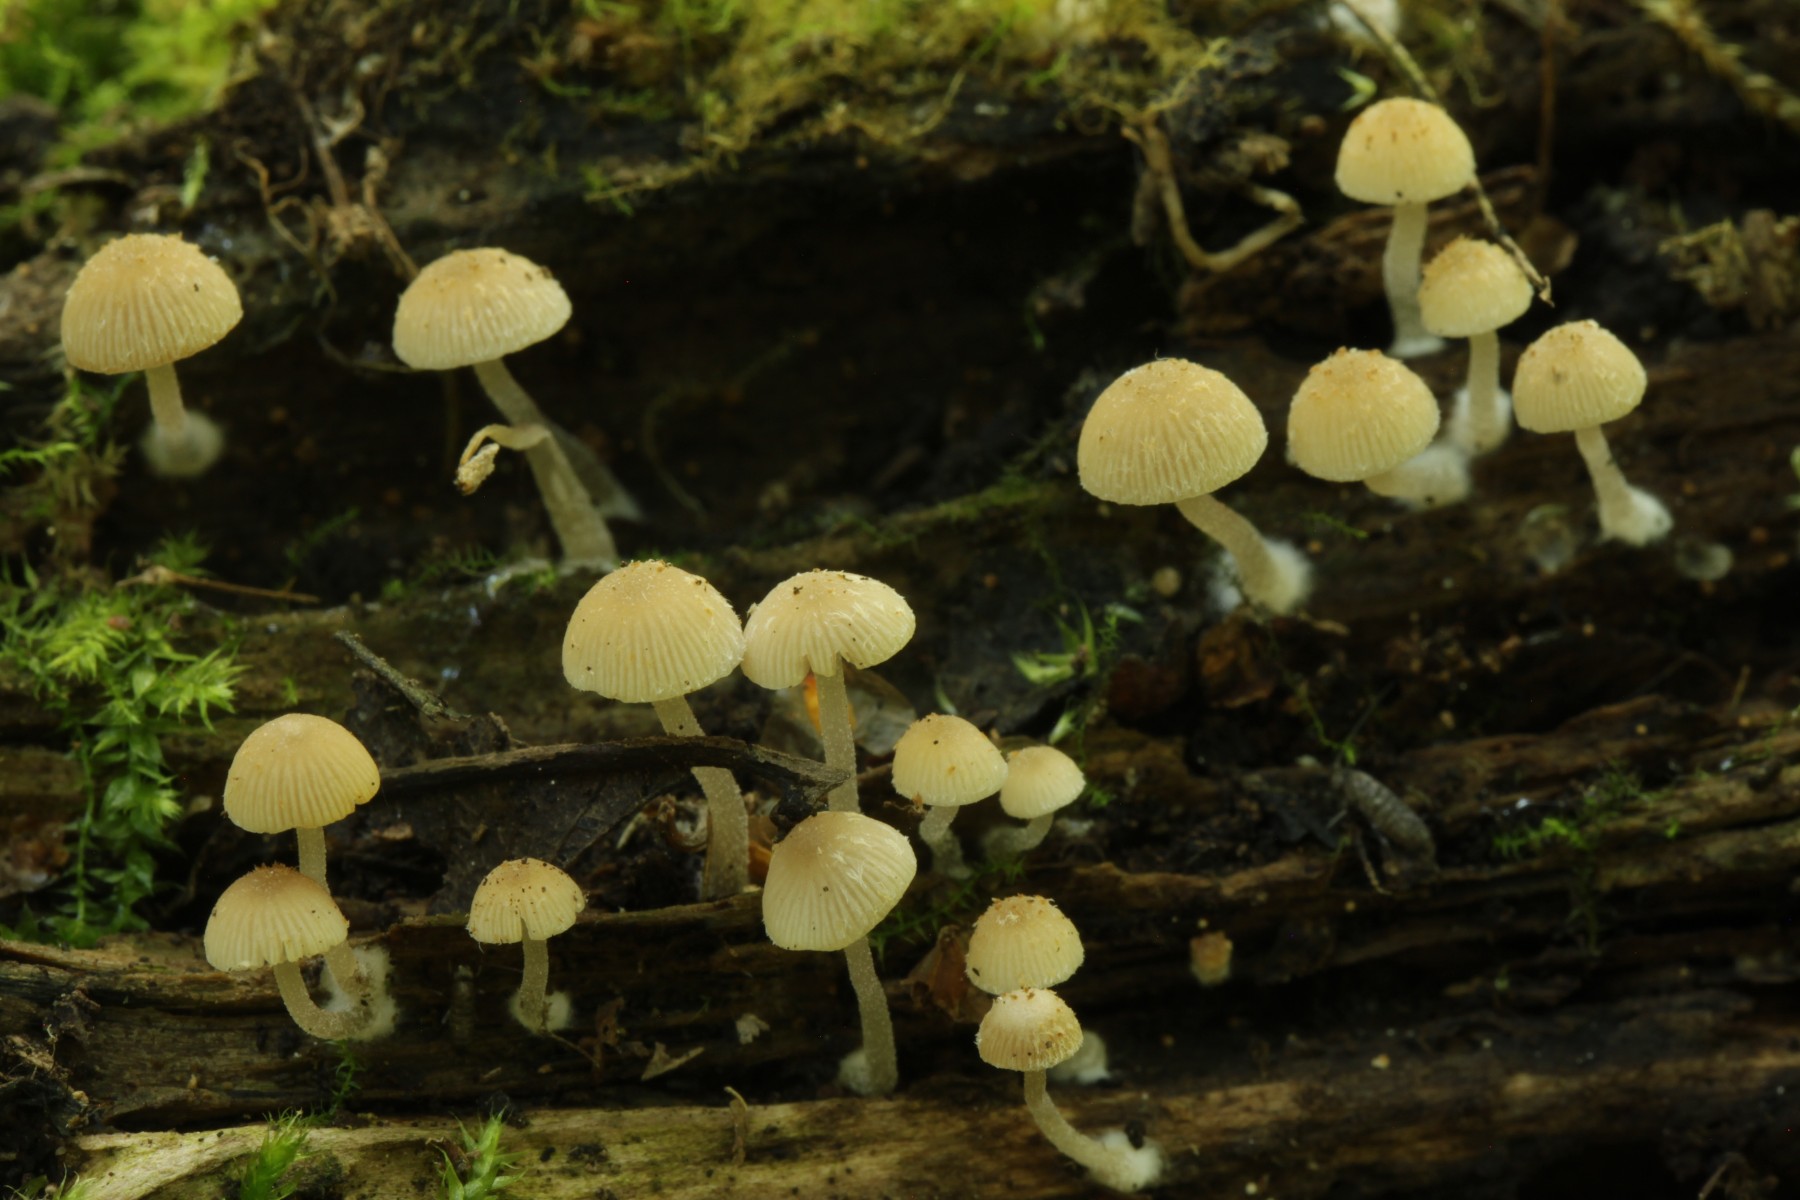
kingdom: Fungi
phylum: Basidiomycota
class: Agaricomycetes
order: Agaricales
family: Psathyrellaceae
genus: Psathyrella
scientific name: Psathyrella pygmaea
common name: dværg-mørkhat
